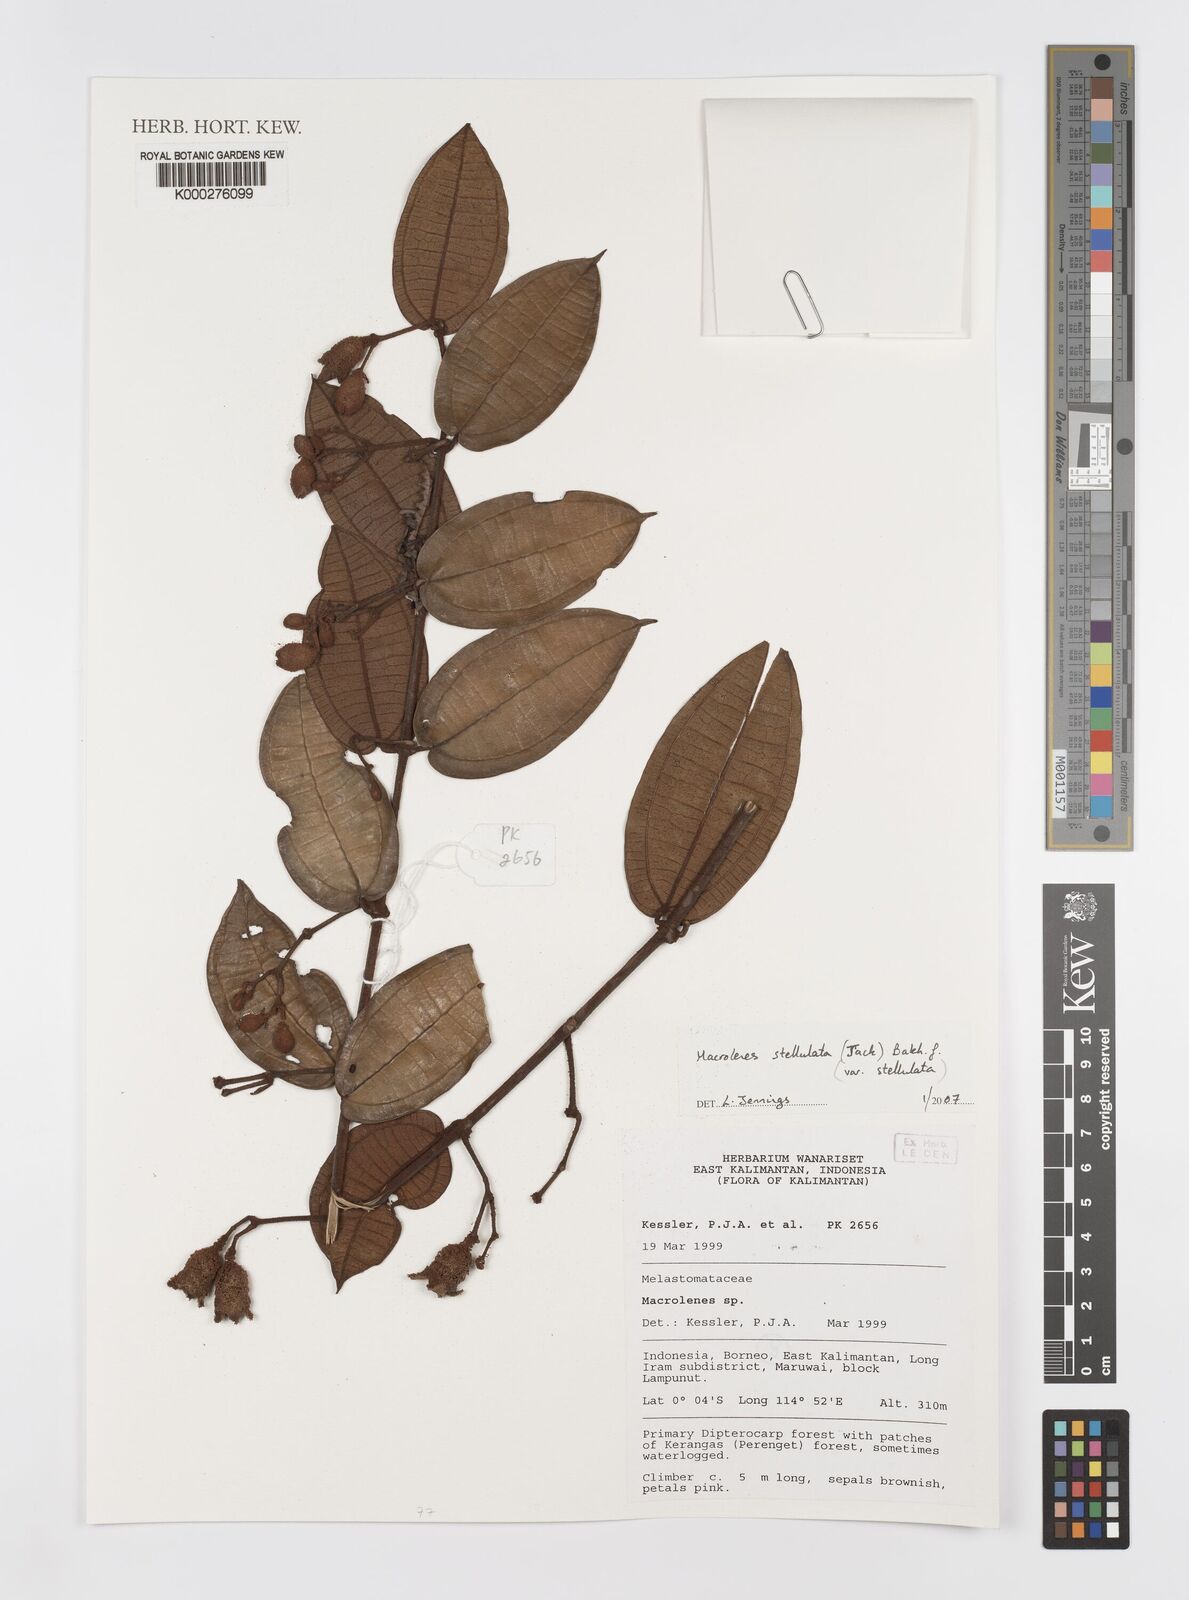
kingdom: Plantae
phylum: Tracheophyta
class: Magnoliopsida
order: Myrtales
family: Melastomataceae
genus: Macrolenes
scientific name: Macrolenes stellulata
